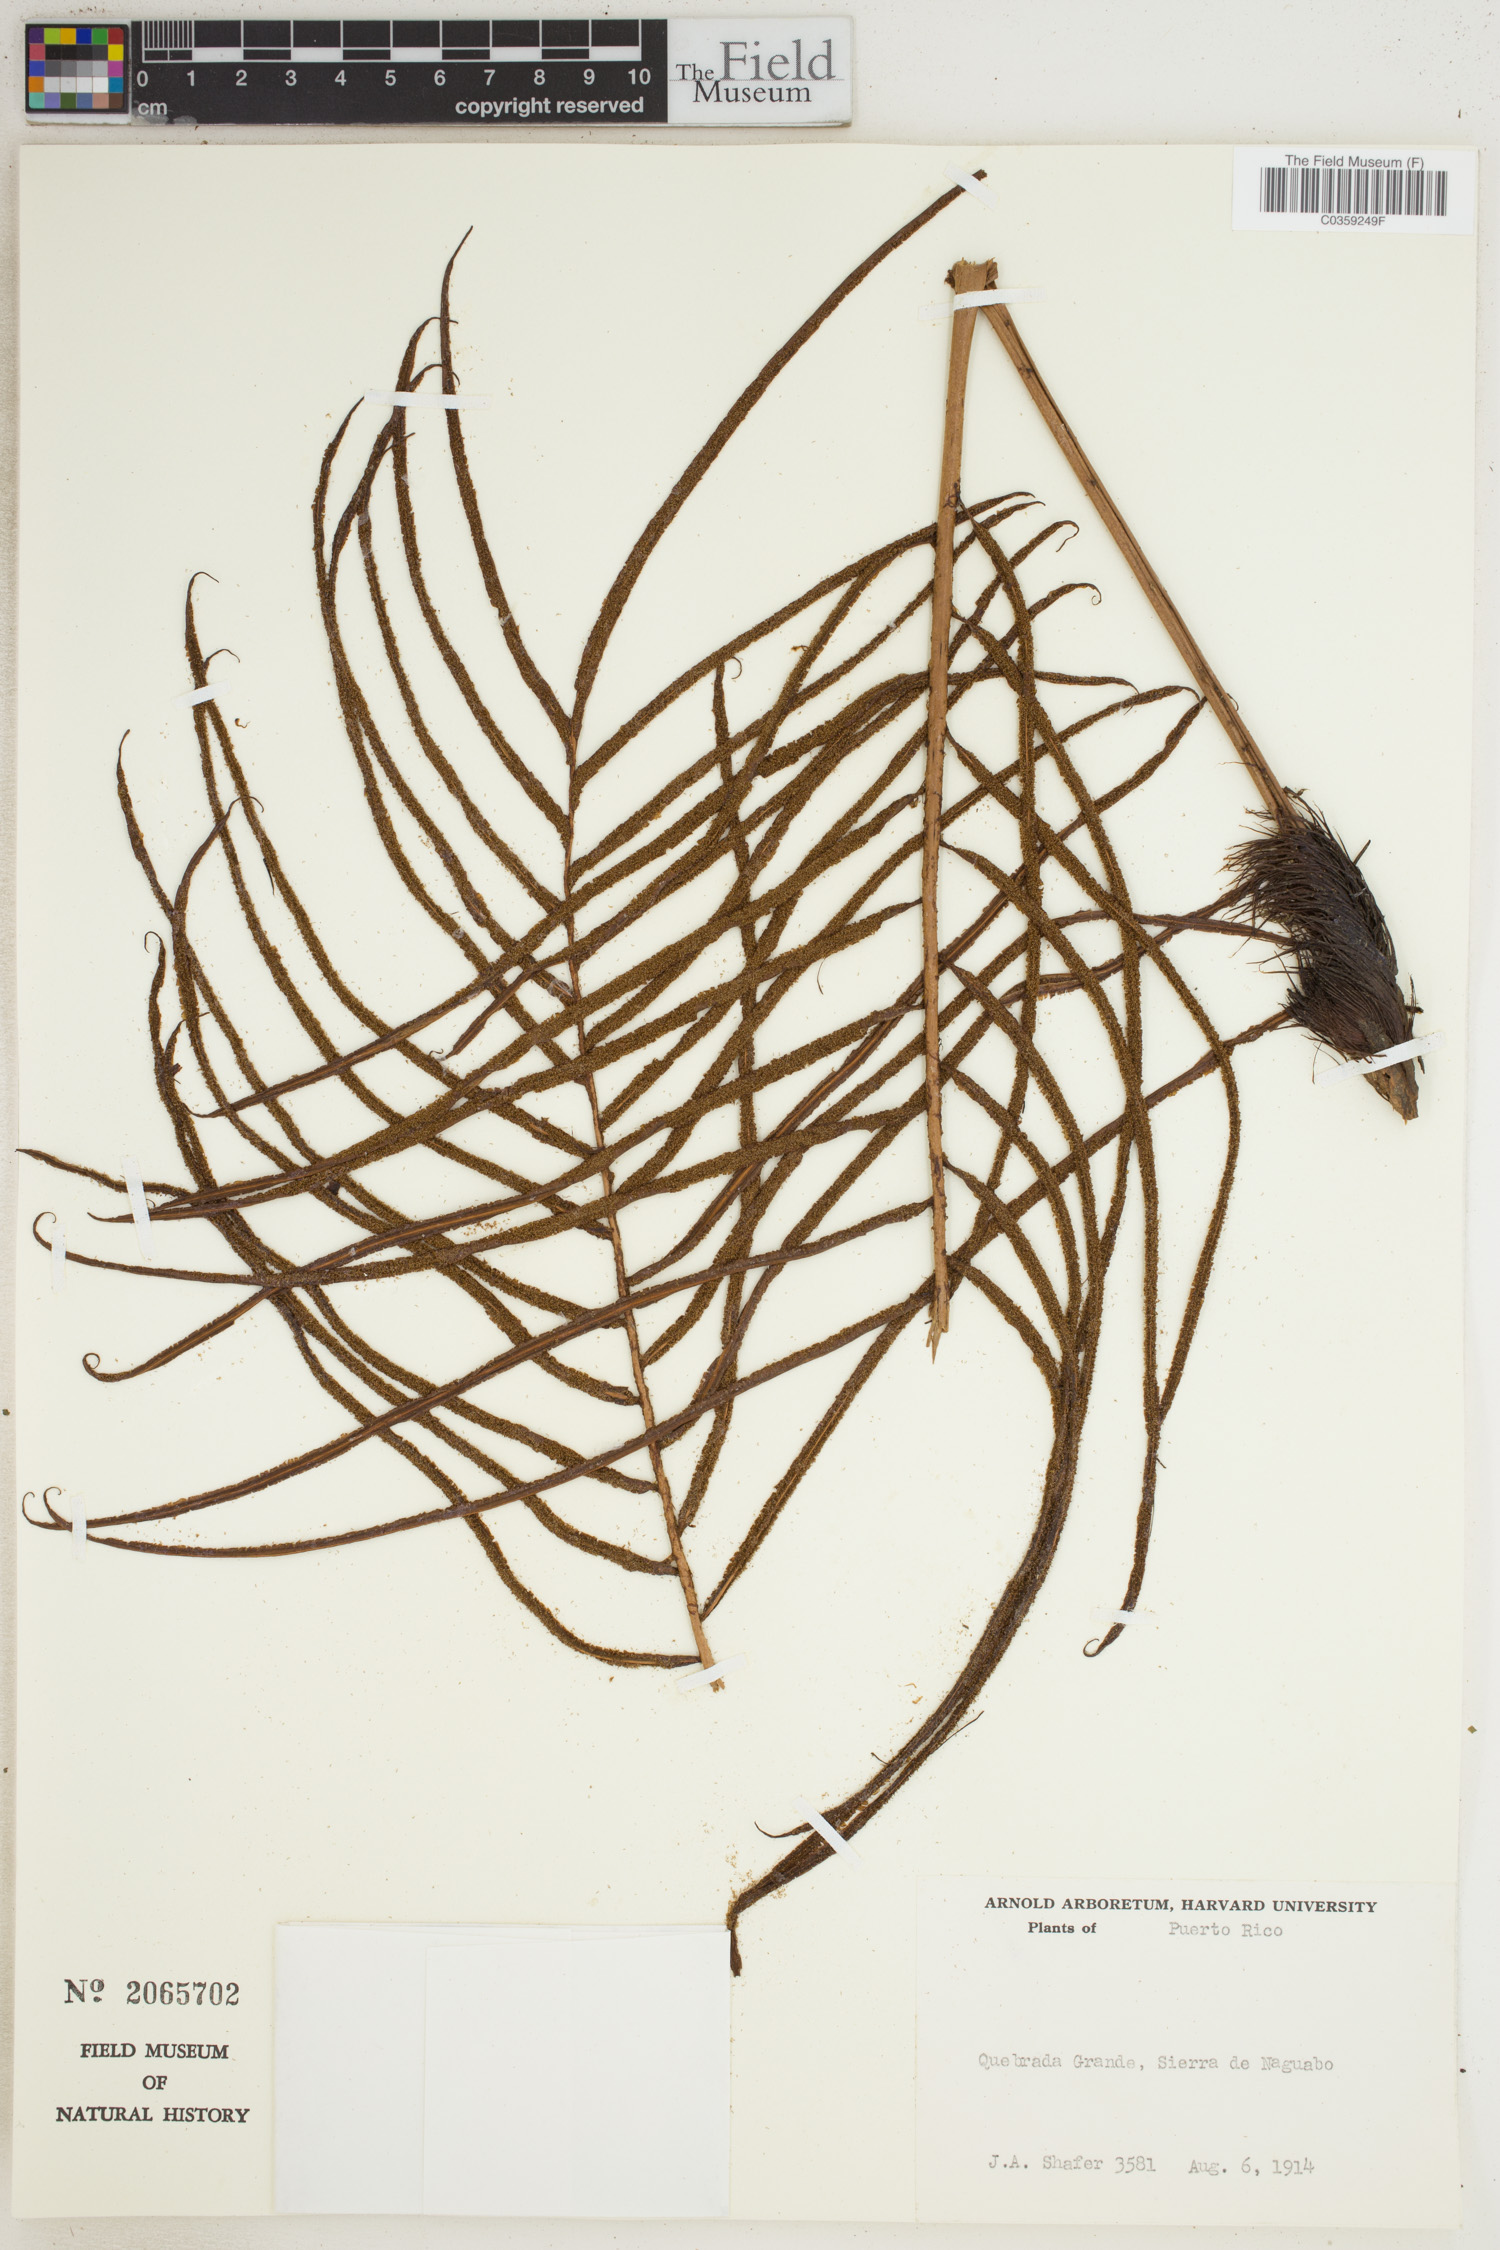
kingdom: Plantae
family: Pteridophyta
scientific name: Pteridophyta
